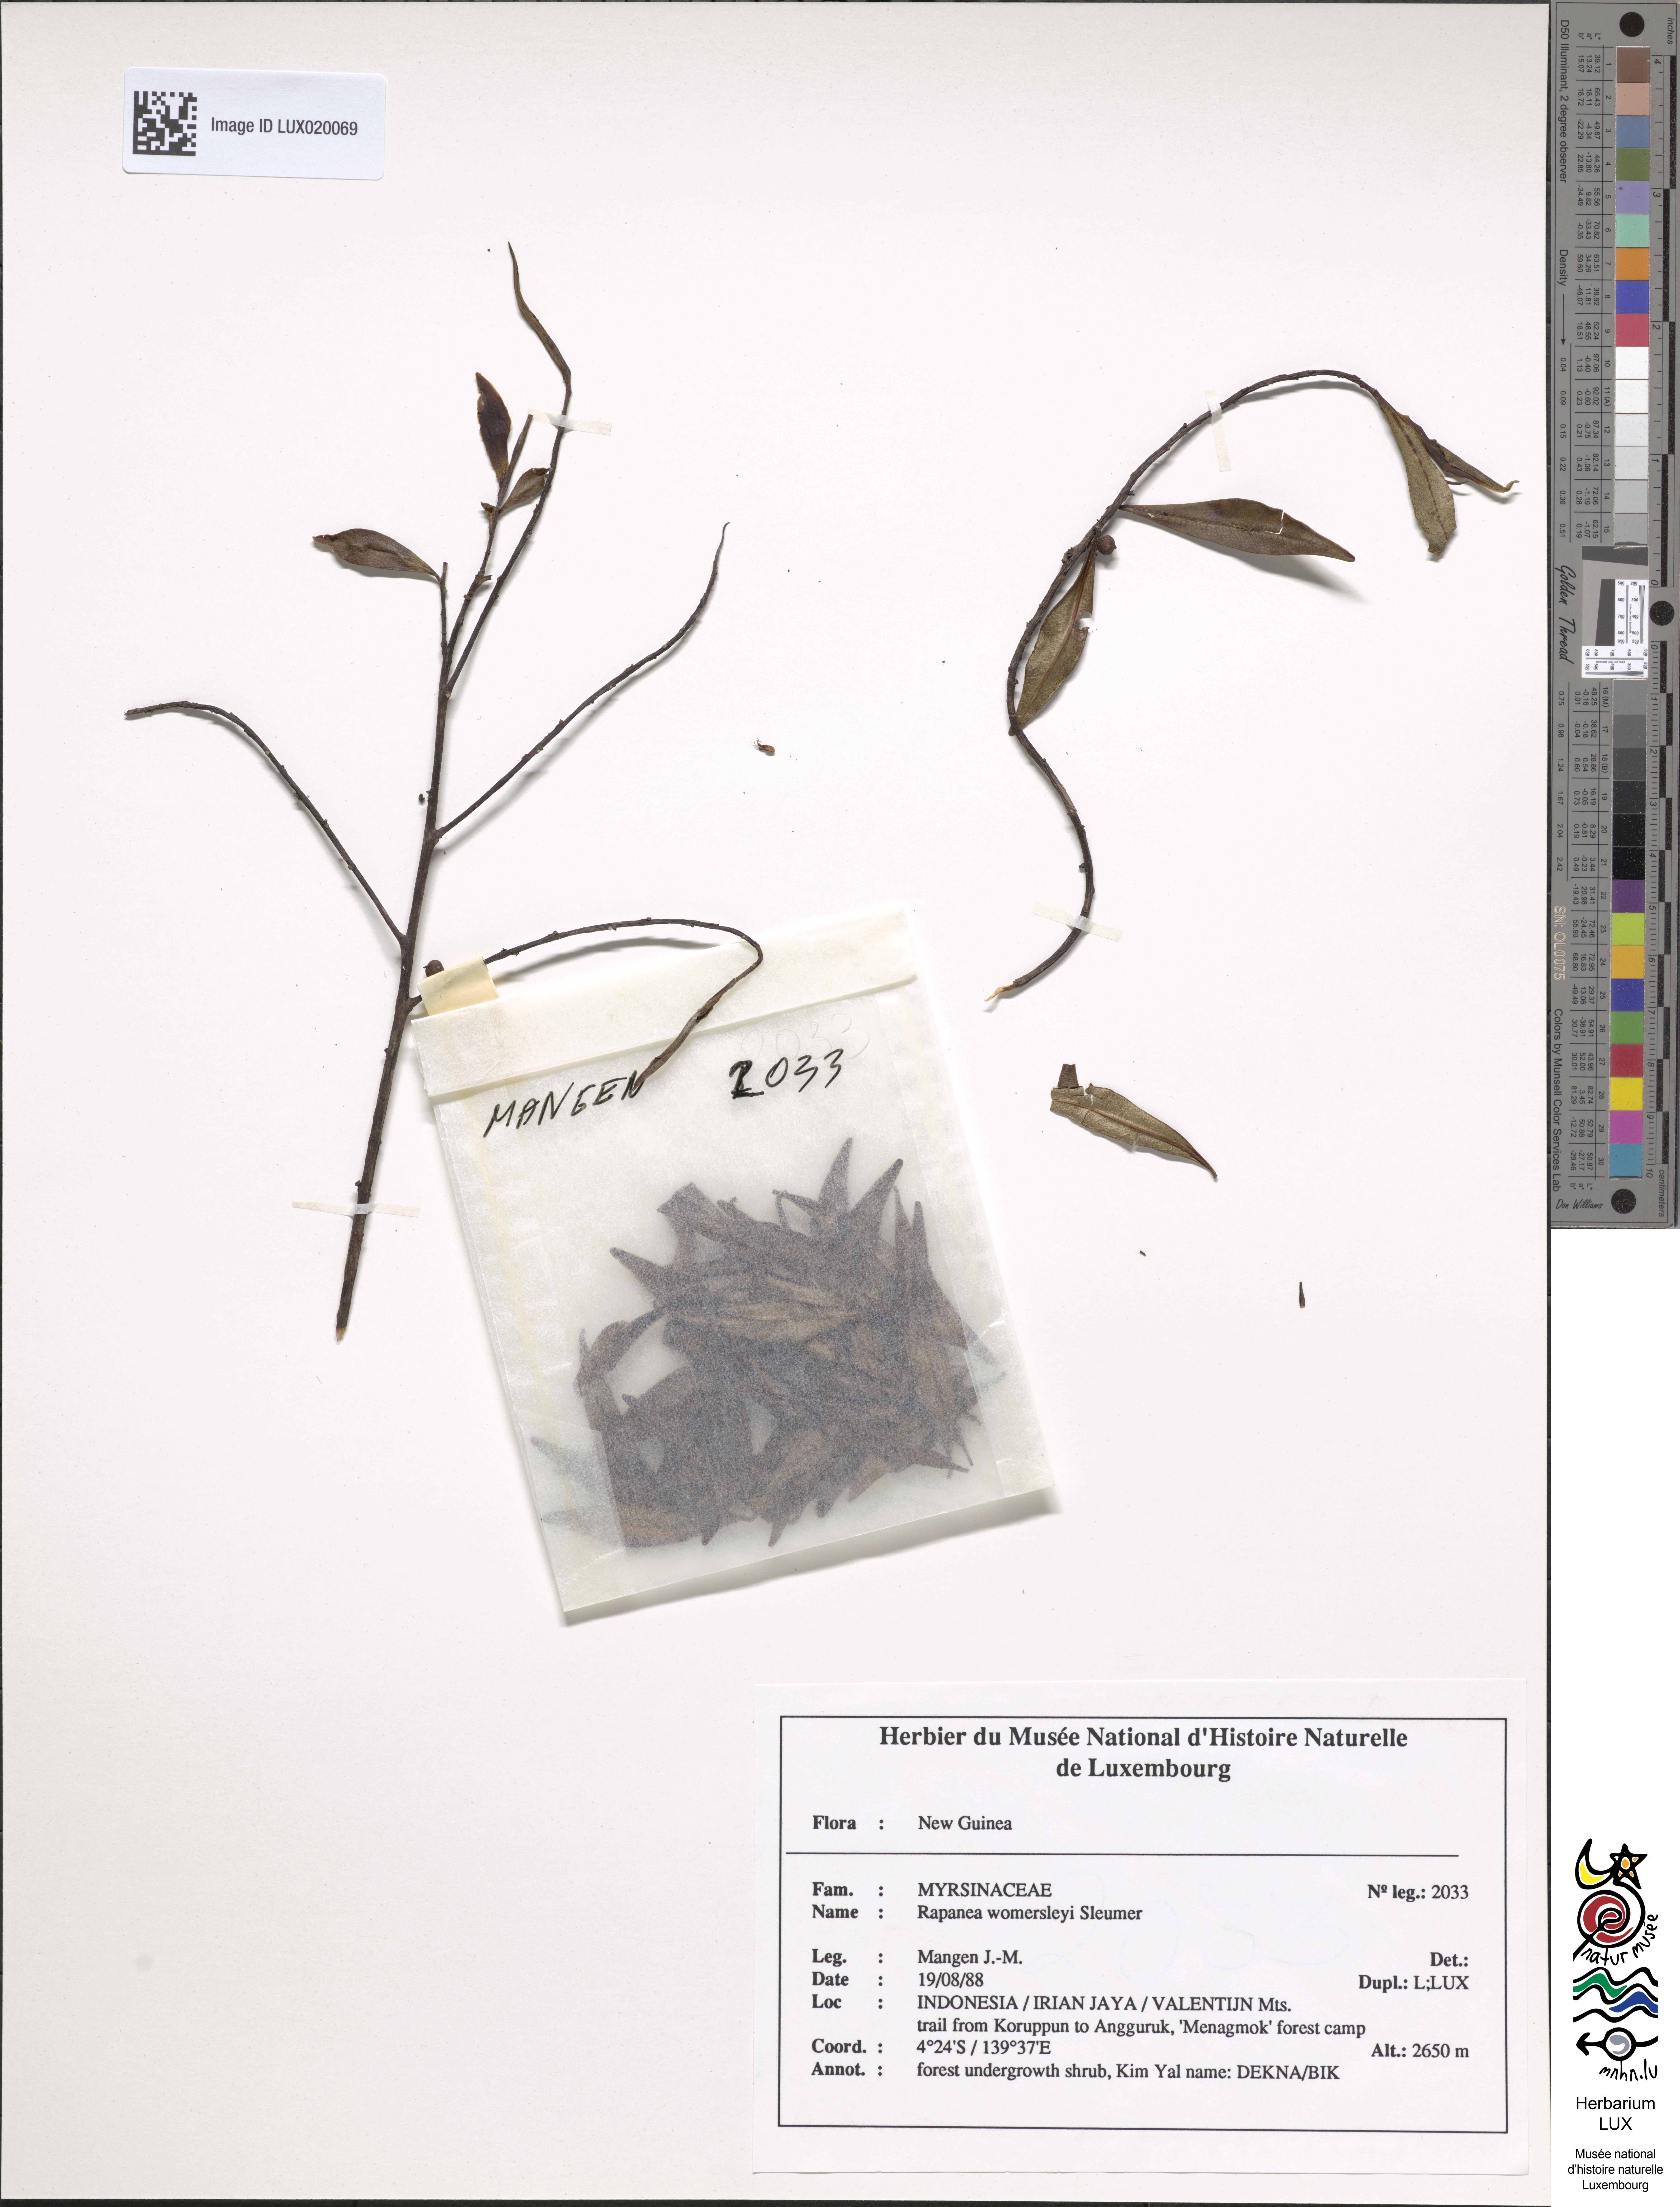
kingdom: Plantae
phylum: Tracheophyta
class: Magnoliopsida
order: Ericales
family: Primulaceae
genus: Myrsine
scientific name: Myrsine womersleyi
